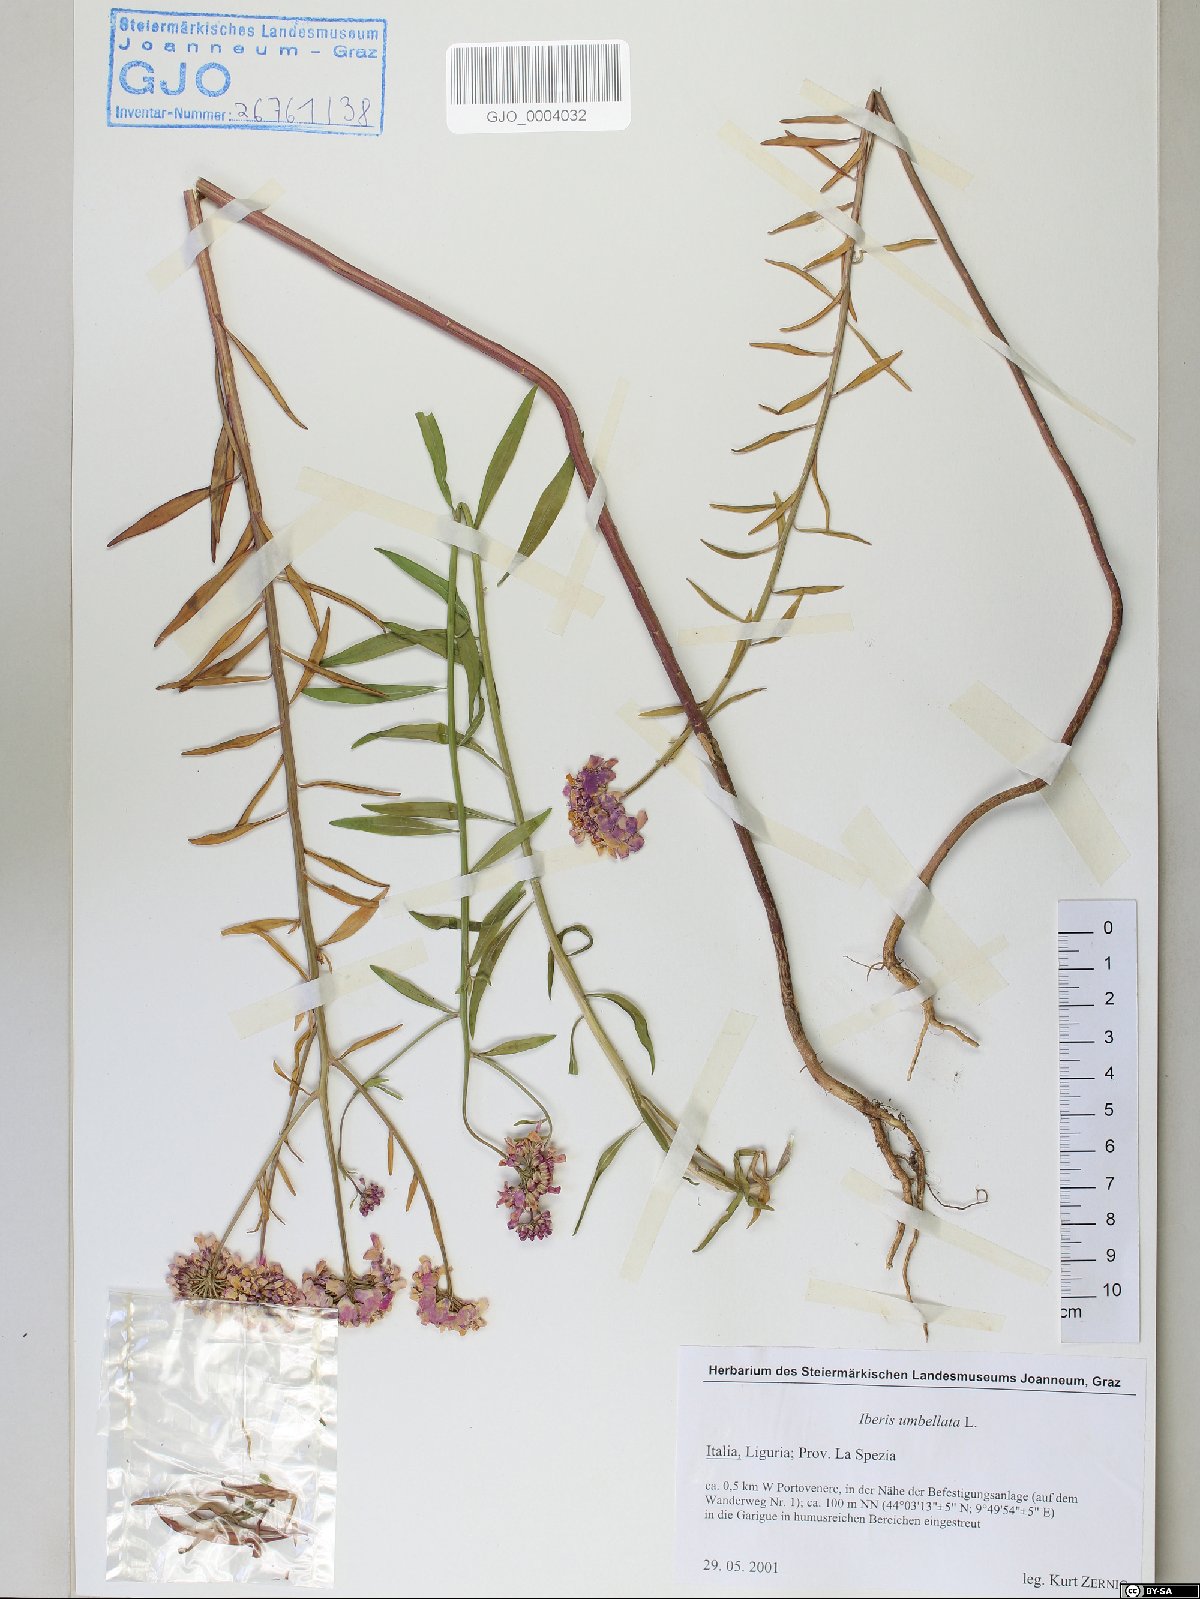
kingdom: Plantae
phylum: Tracheophyta
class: Magnoliopsida
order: Brassicales
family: Brassicaceae
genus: Iberis
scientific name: Iberis umbellata
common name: Globe candytuft
